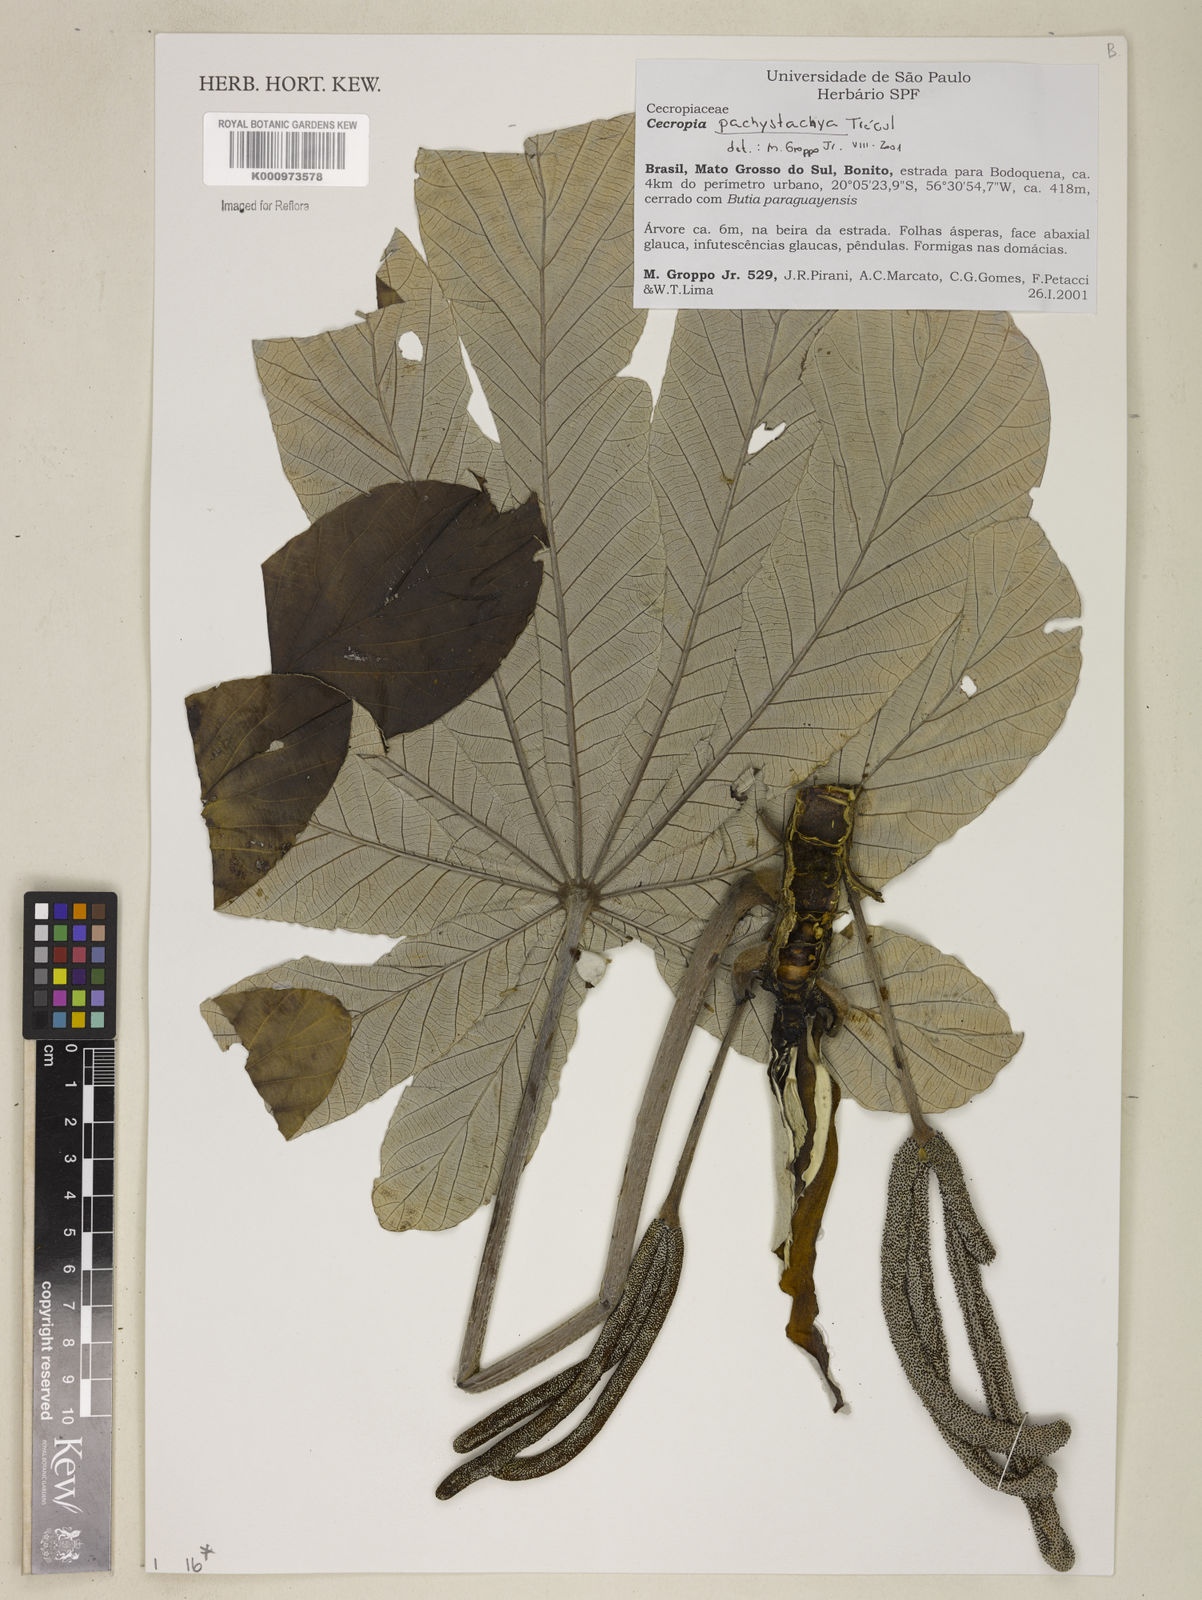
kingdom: Plantae
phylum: Tracheophyta
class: Magnoliopsida
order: Rosales
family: Urticaceae
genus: Cecropia
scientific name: Cecropia
